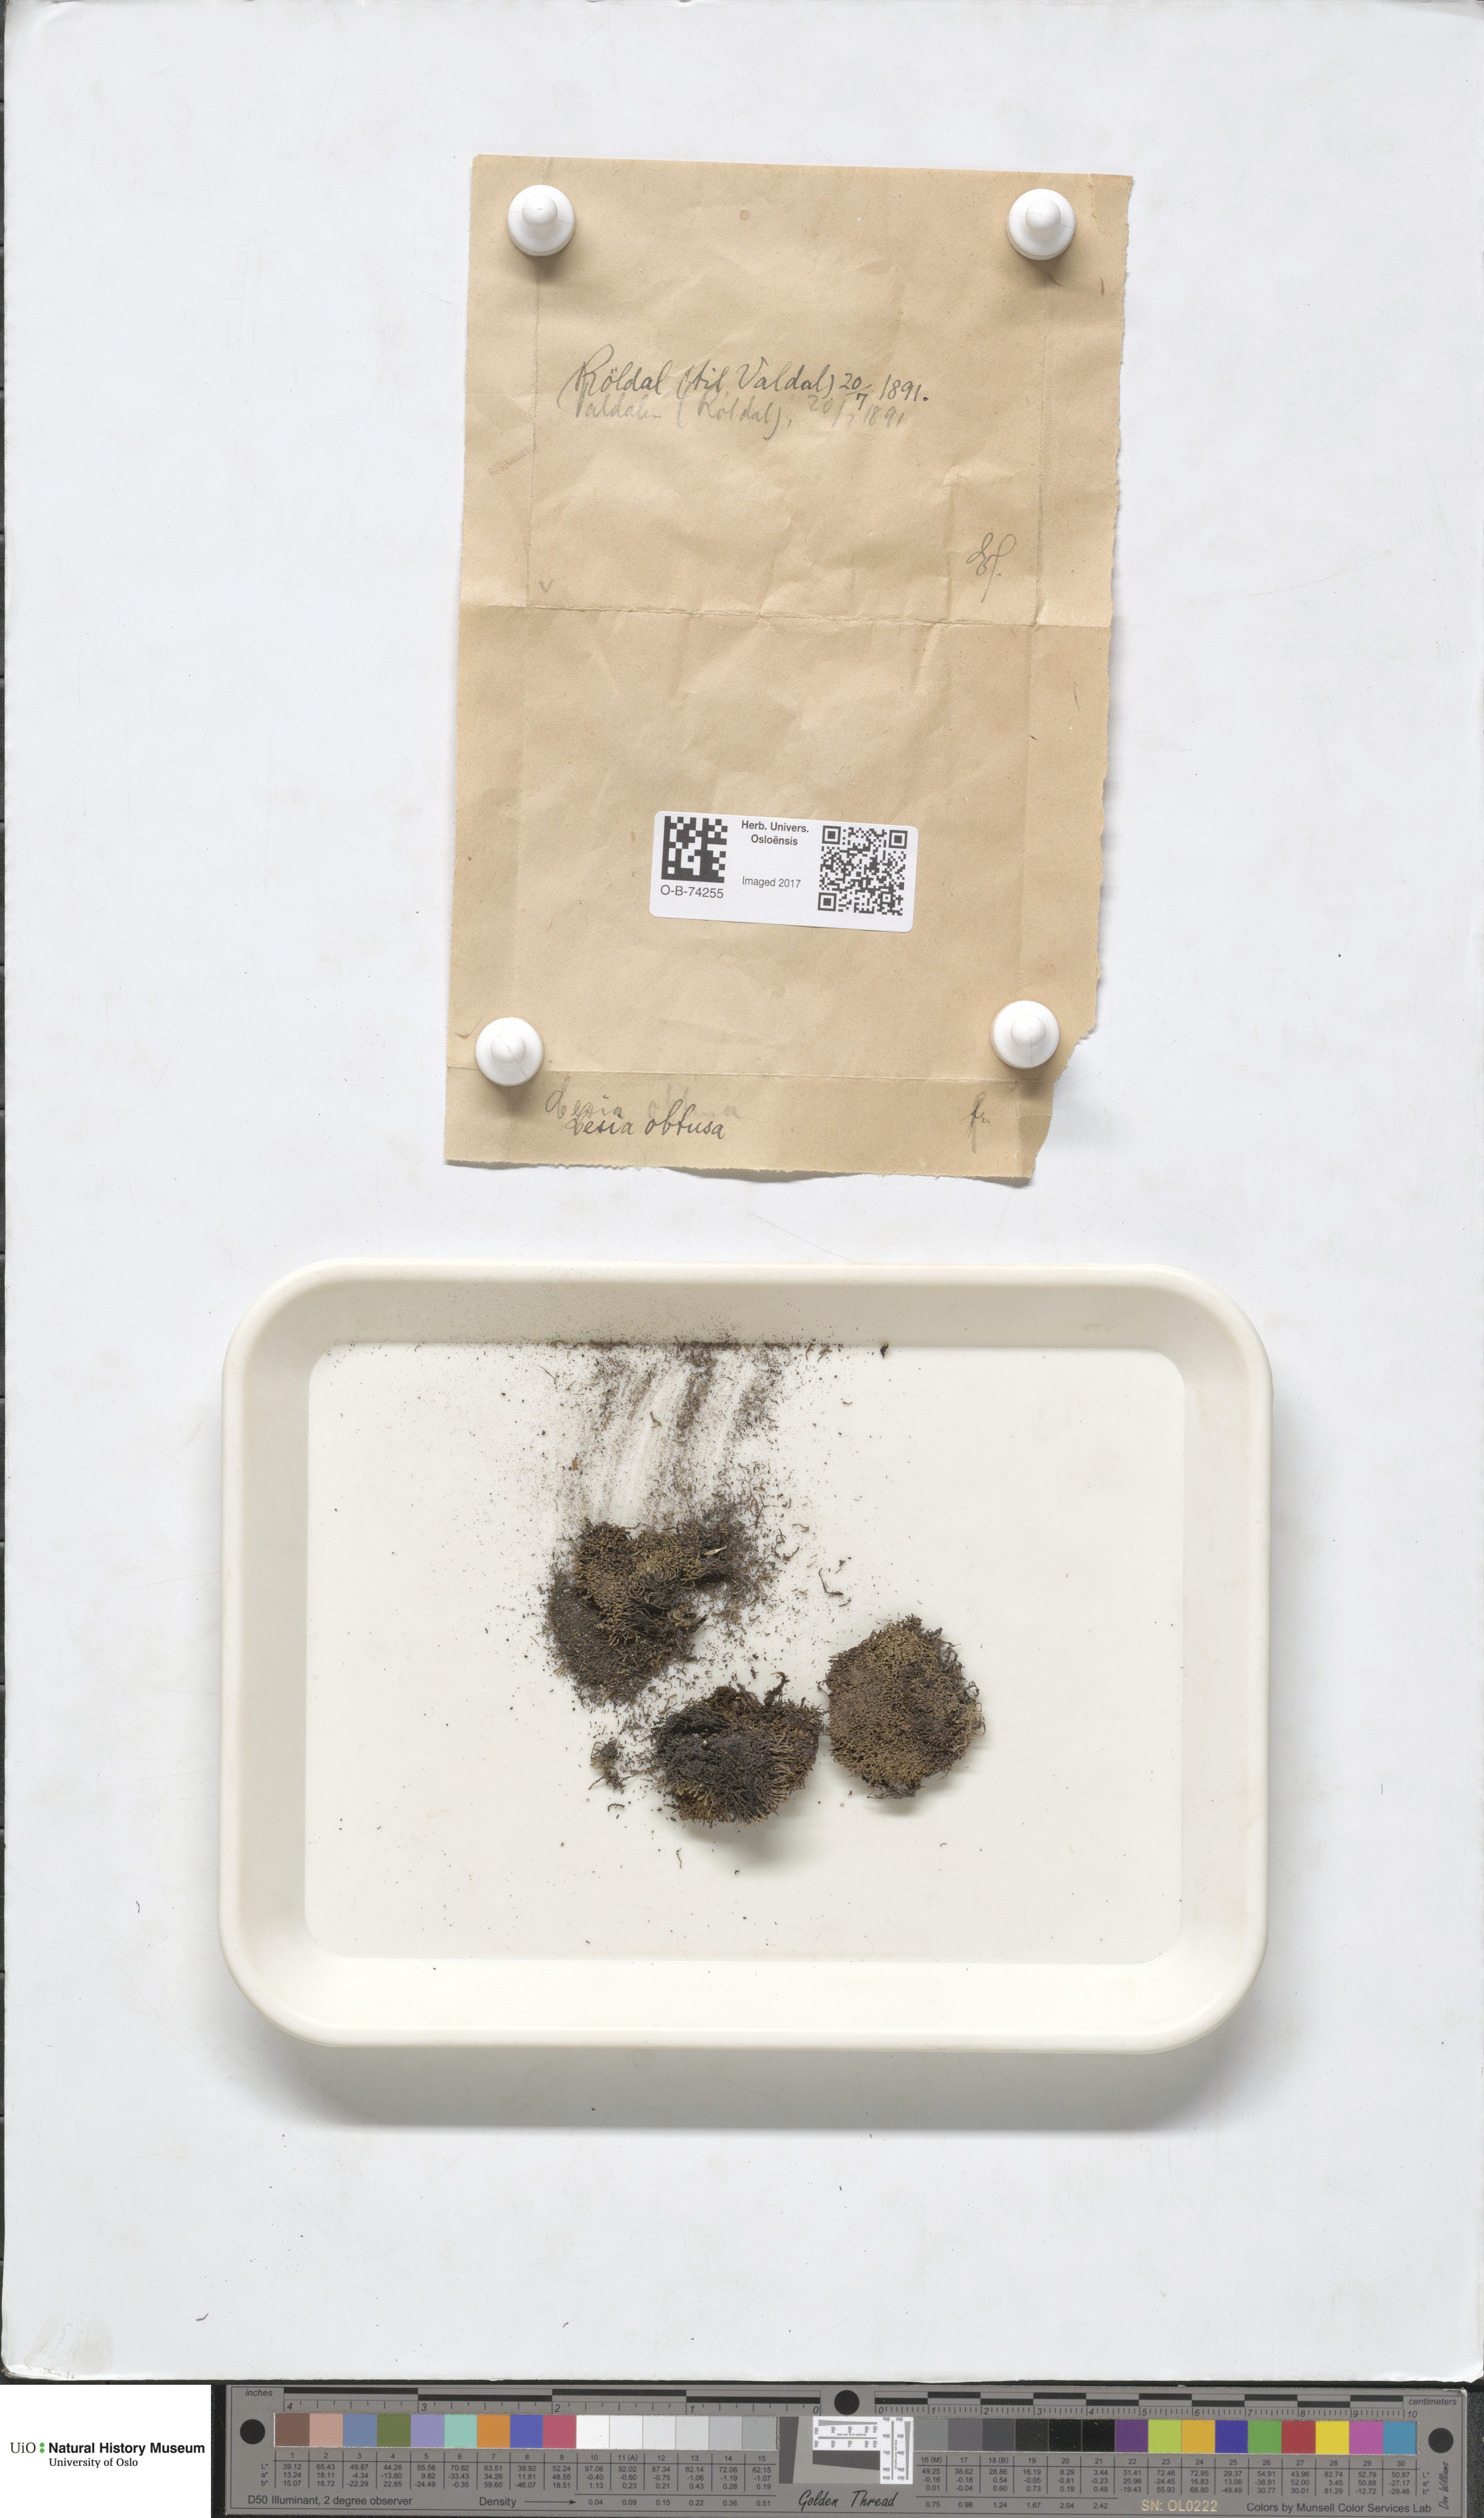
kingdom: Plantae
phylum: Marchantiophyta
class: Jungermanniopsida
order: Jungermanniales
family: Gymnomitriaceae
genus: Gymnomitrion
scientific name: Gymnomitrion obtusum
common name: White frostwort
